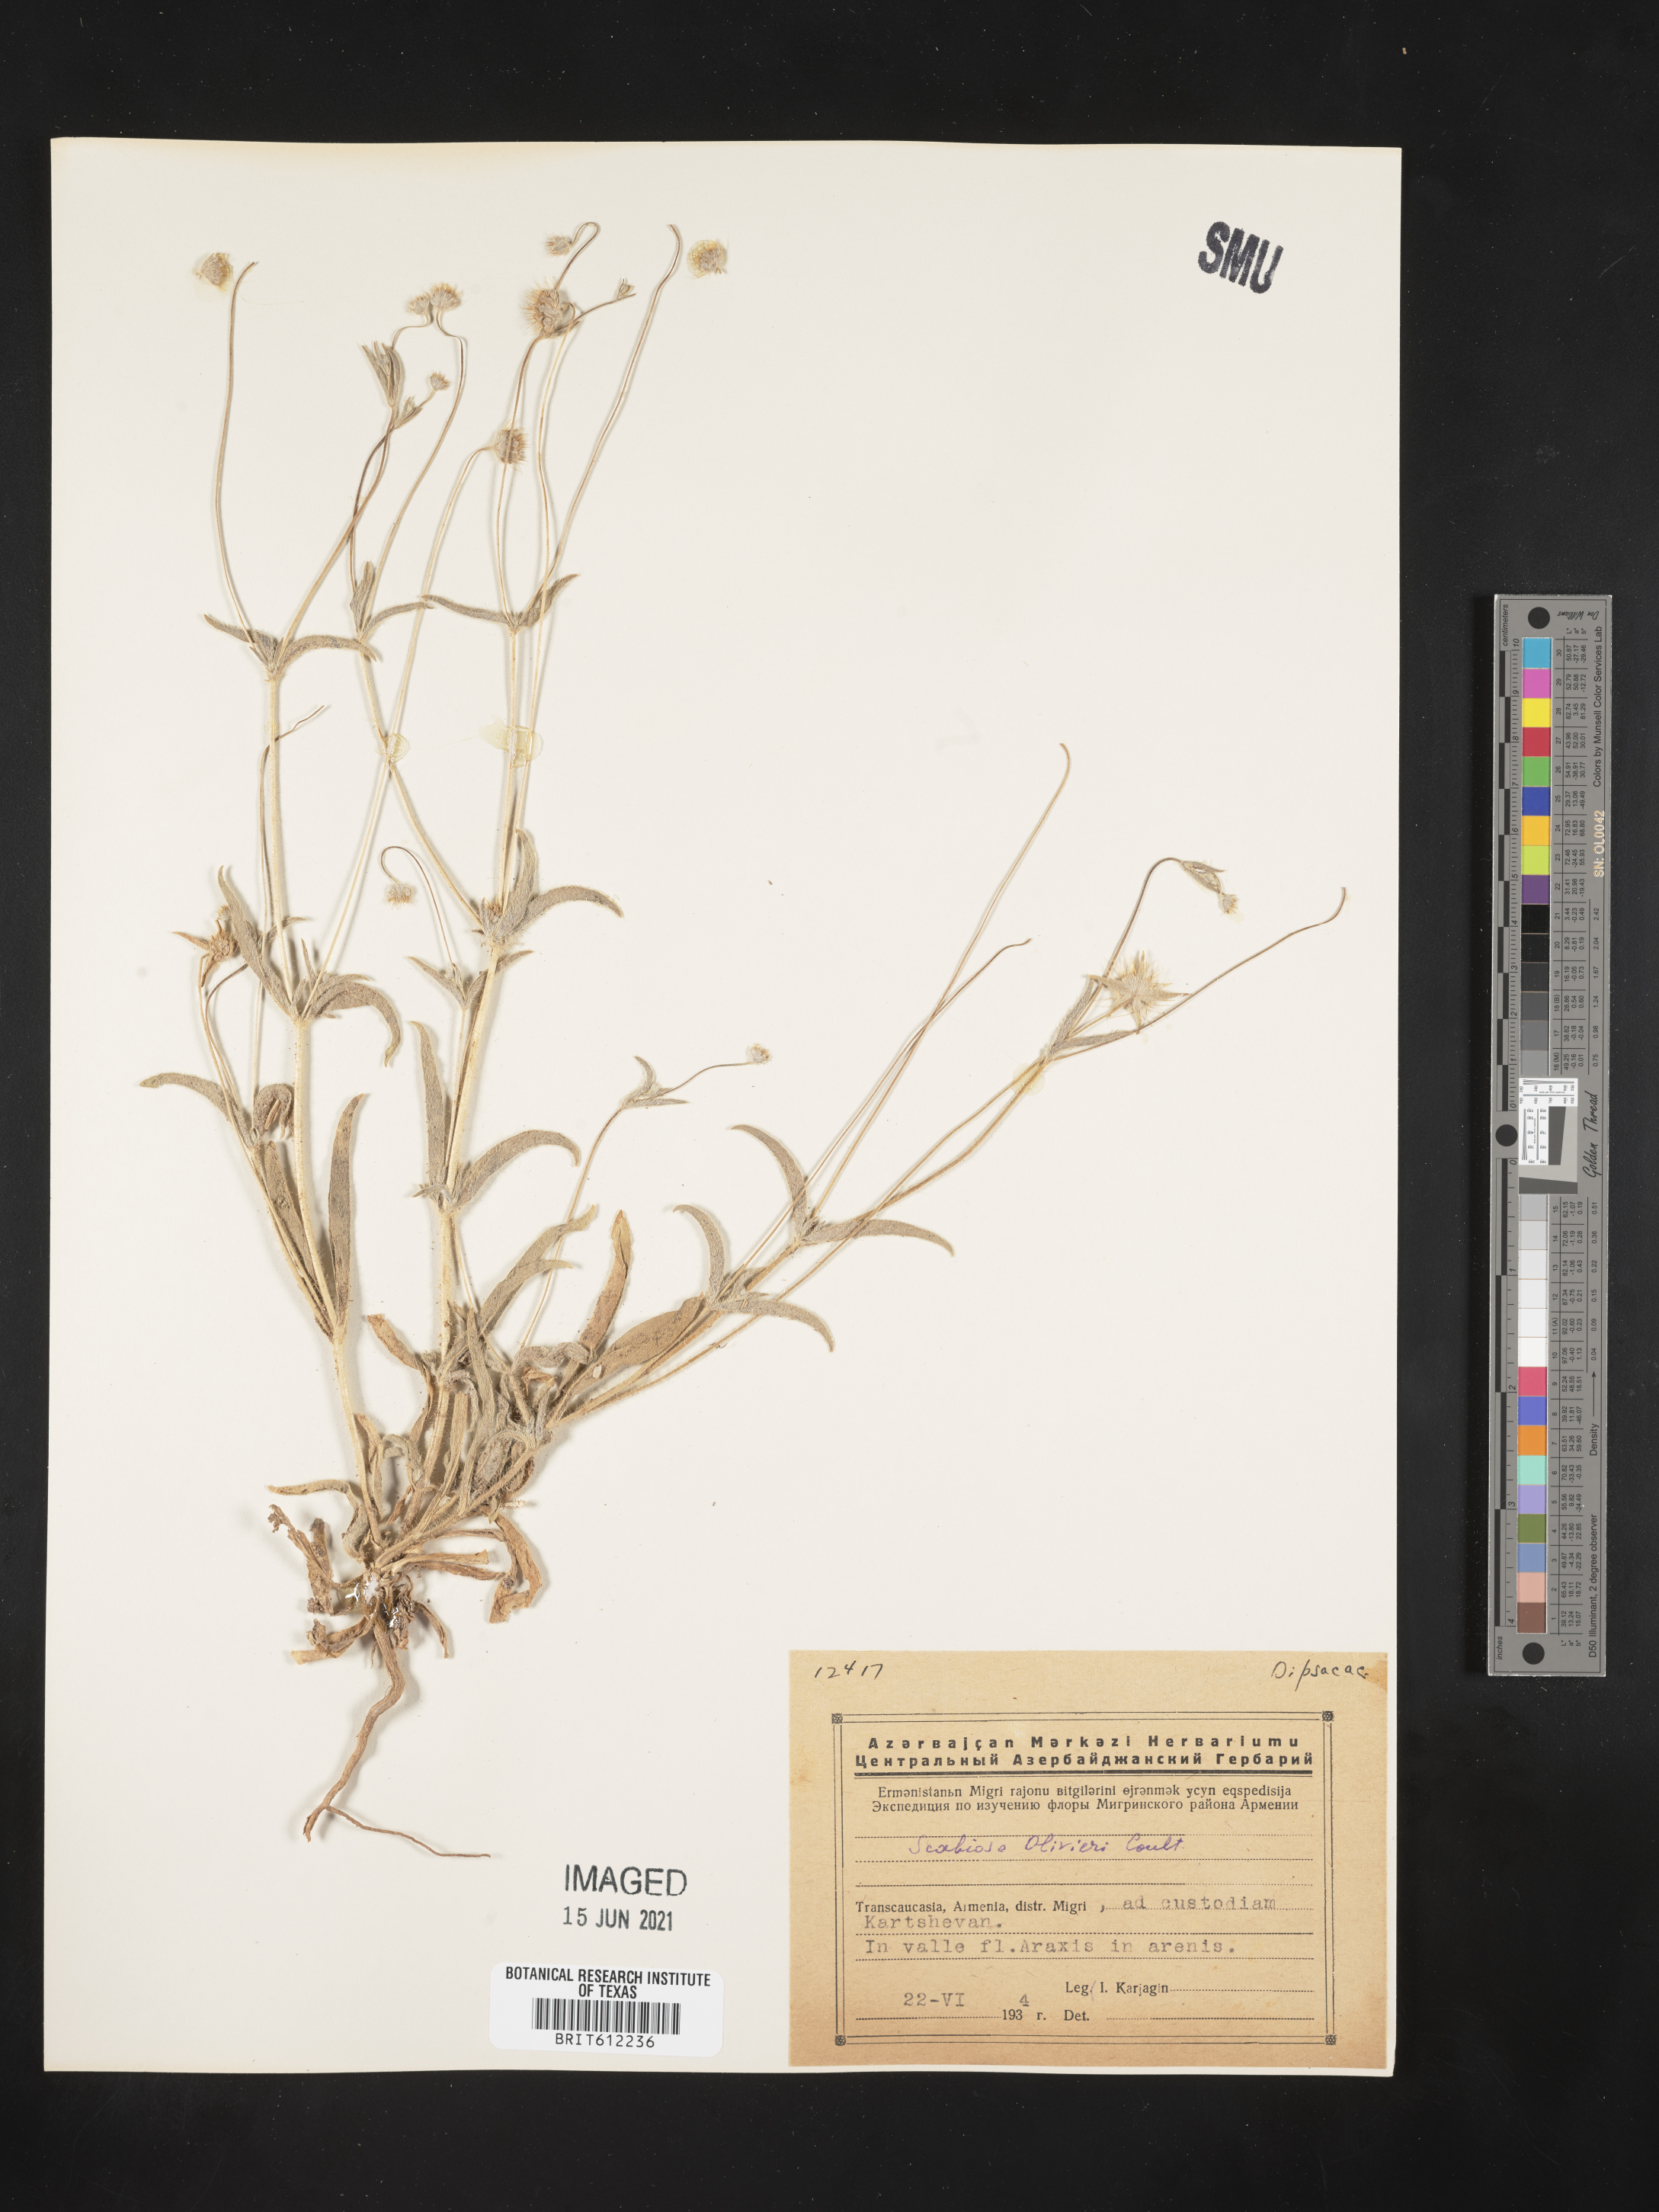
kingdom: Plantae
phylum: Tracheophyta
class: Magnoliopsida
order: Dipsacales
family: Caprifoliaceae
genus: Lomelosia
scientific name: Lomelosia olivieri
